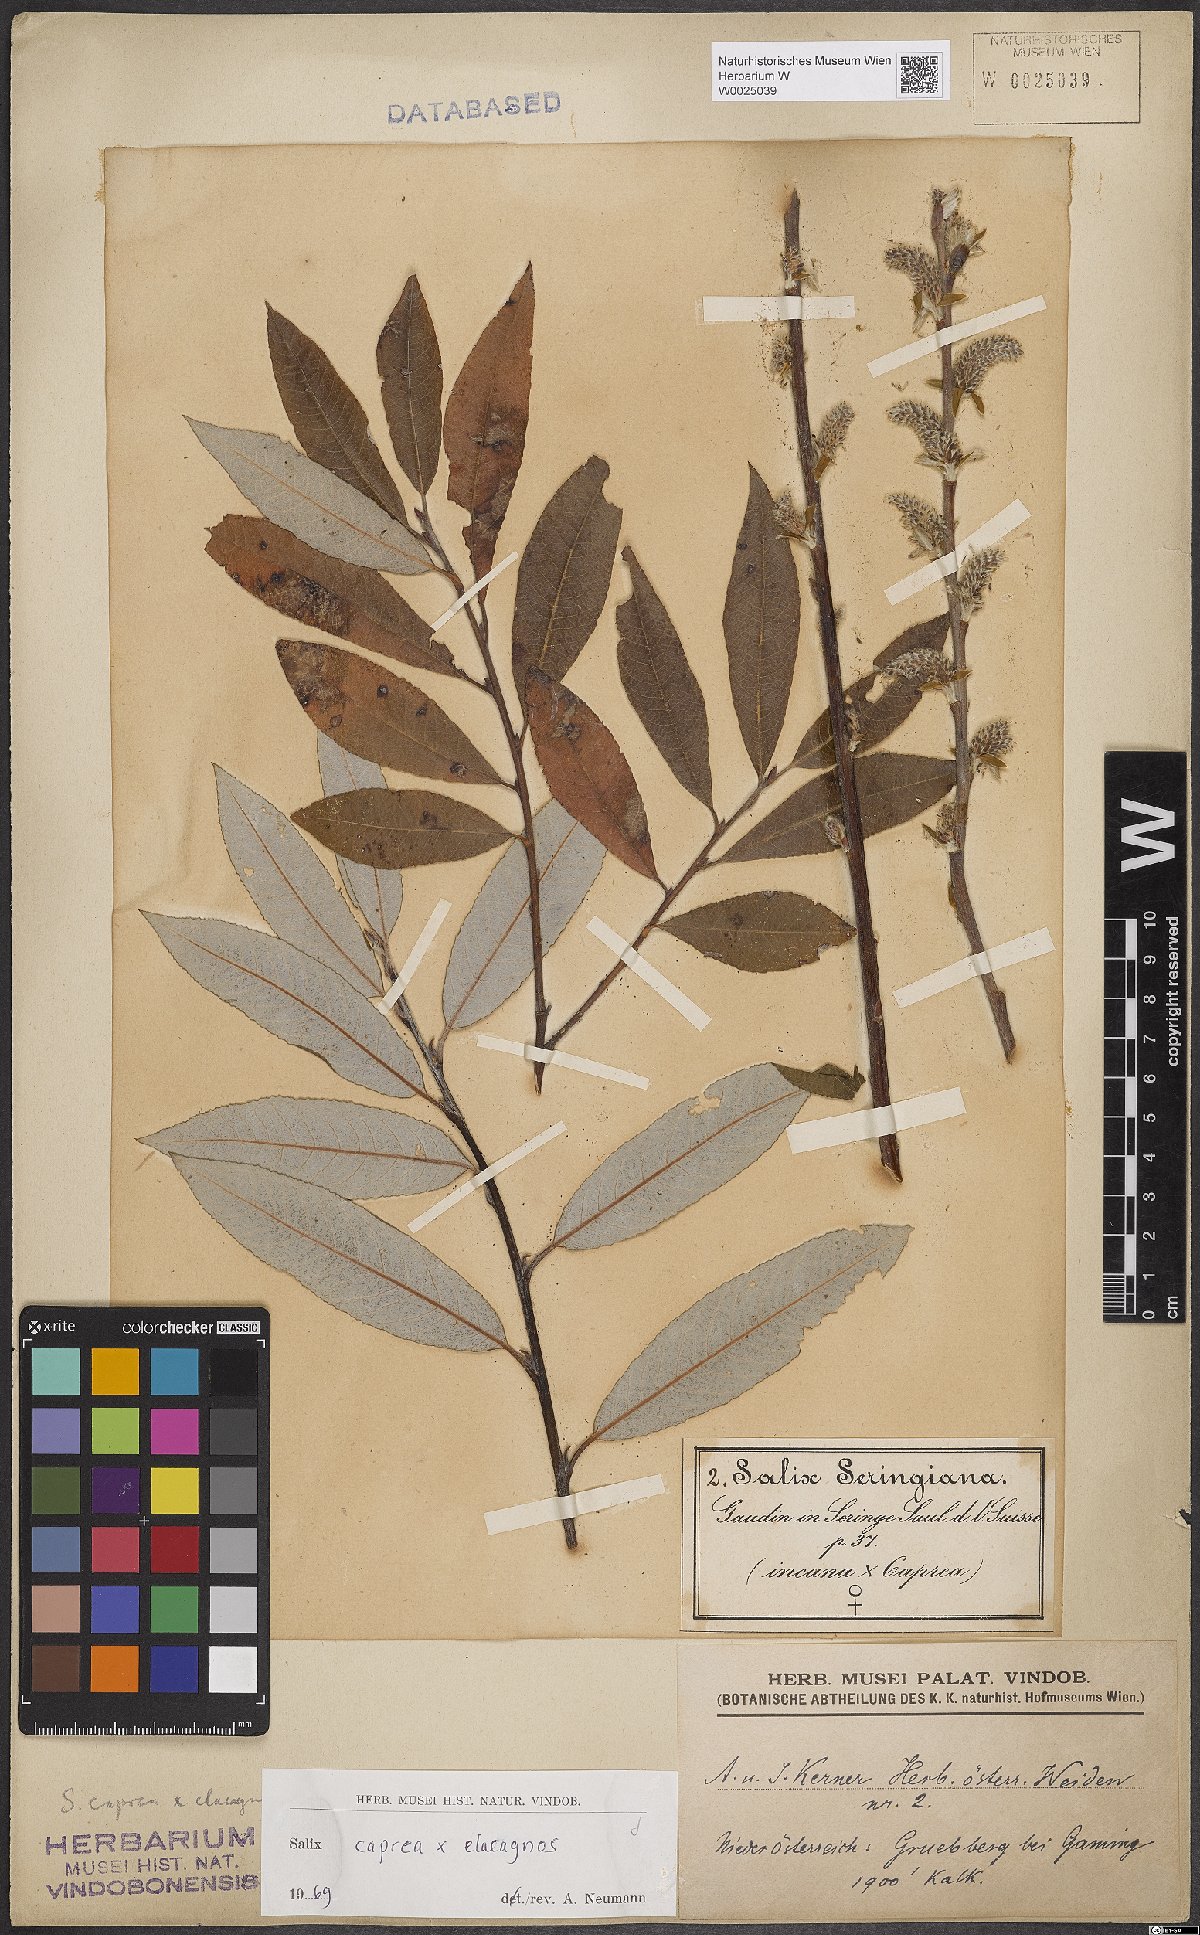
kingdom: Plantae
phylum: Tracheophyta
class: Magnoliopsida
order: Malpighiales
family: Salicaceae
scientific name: Salicaceae
